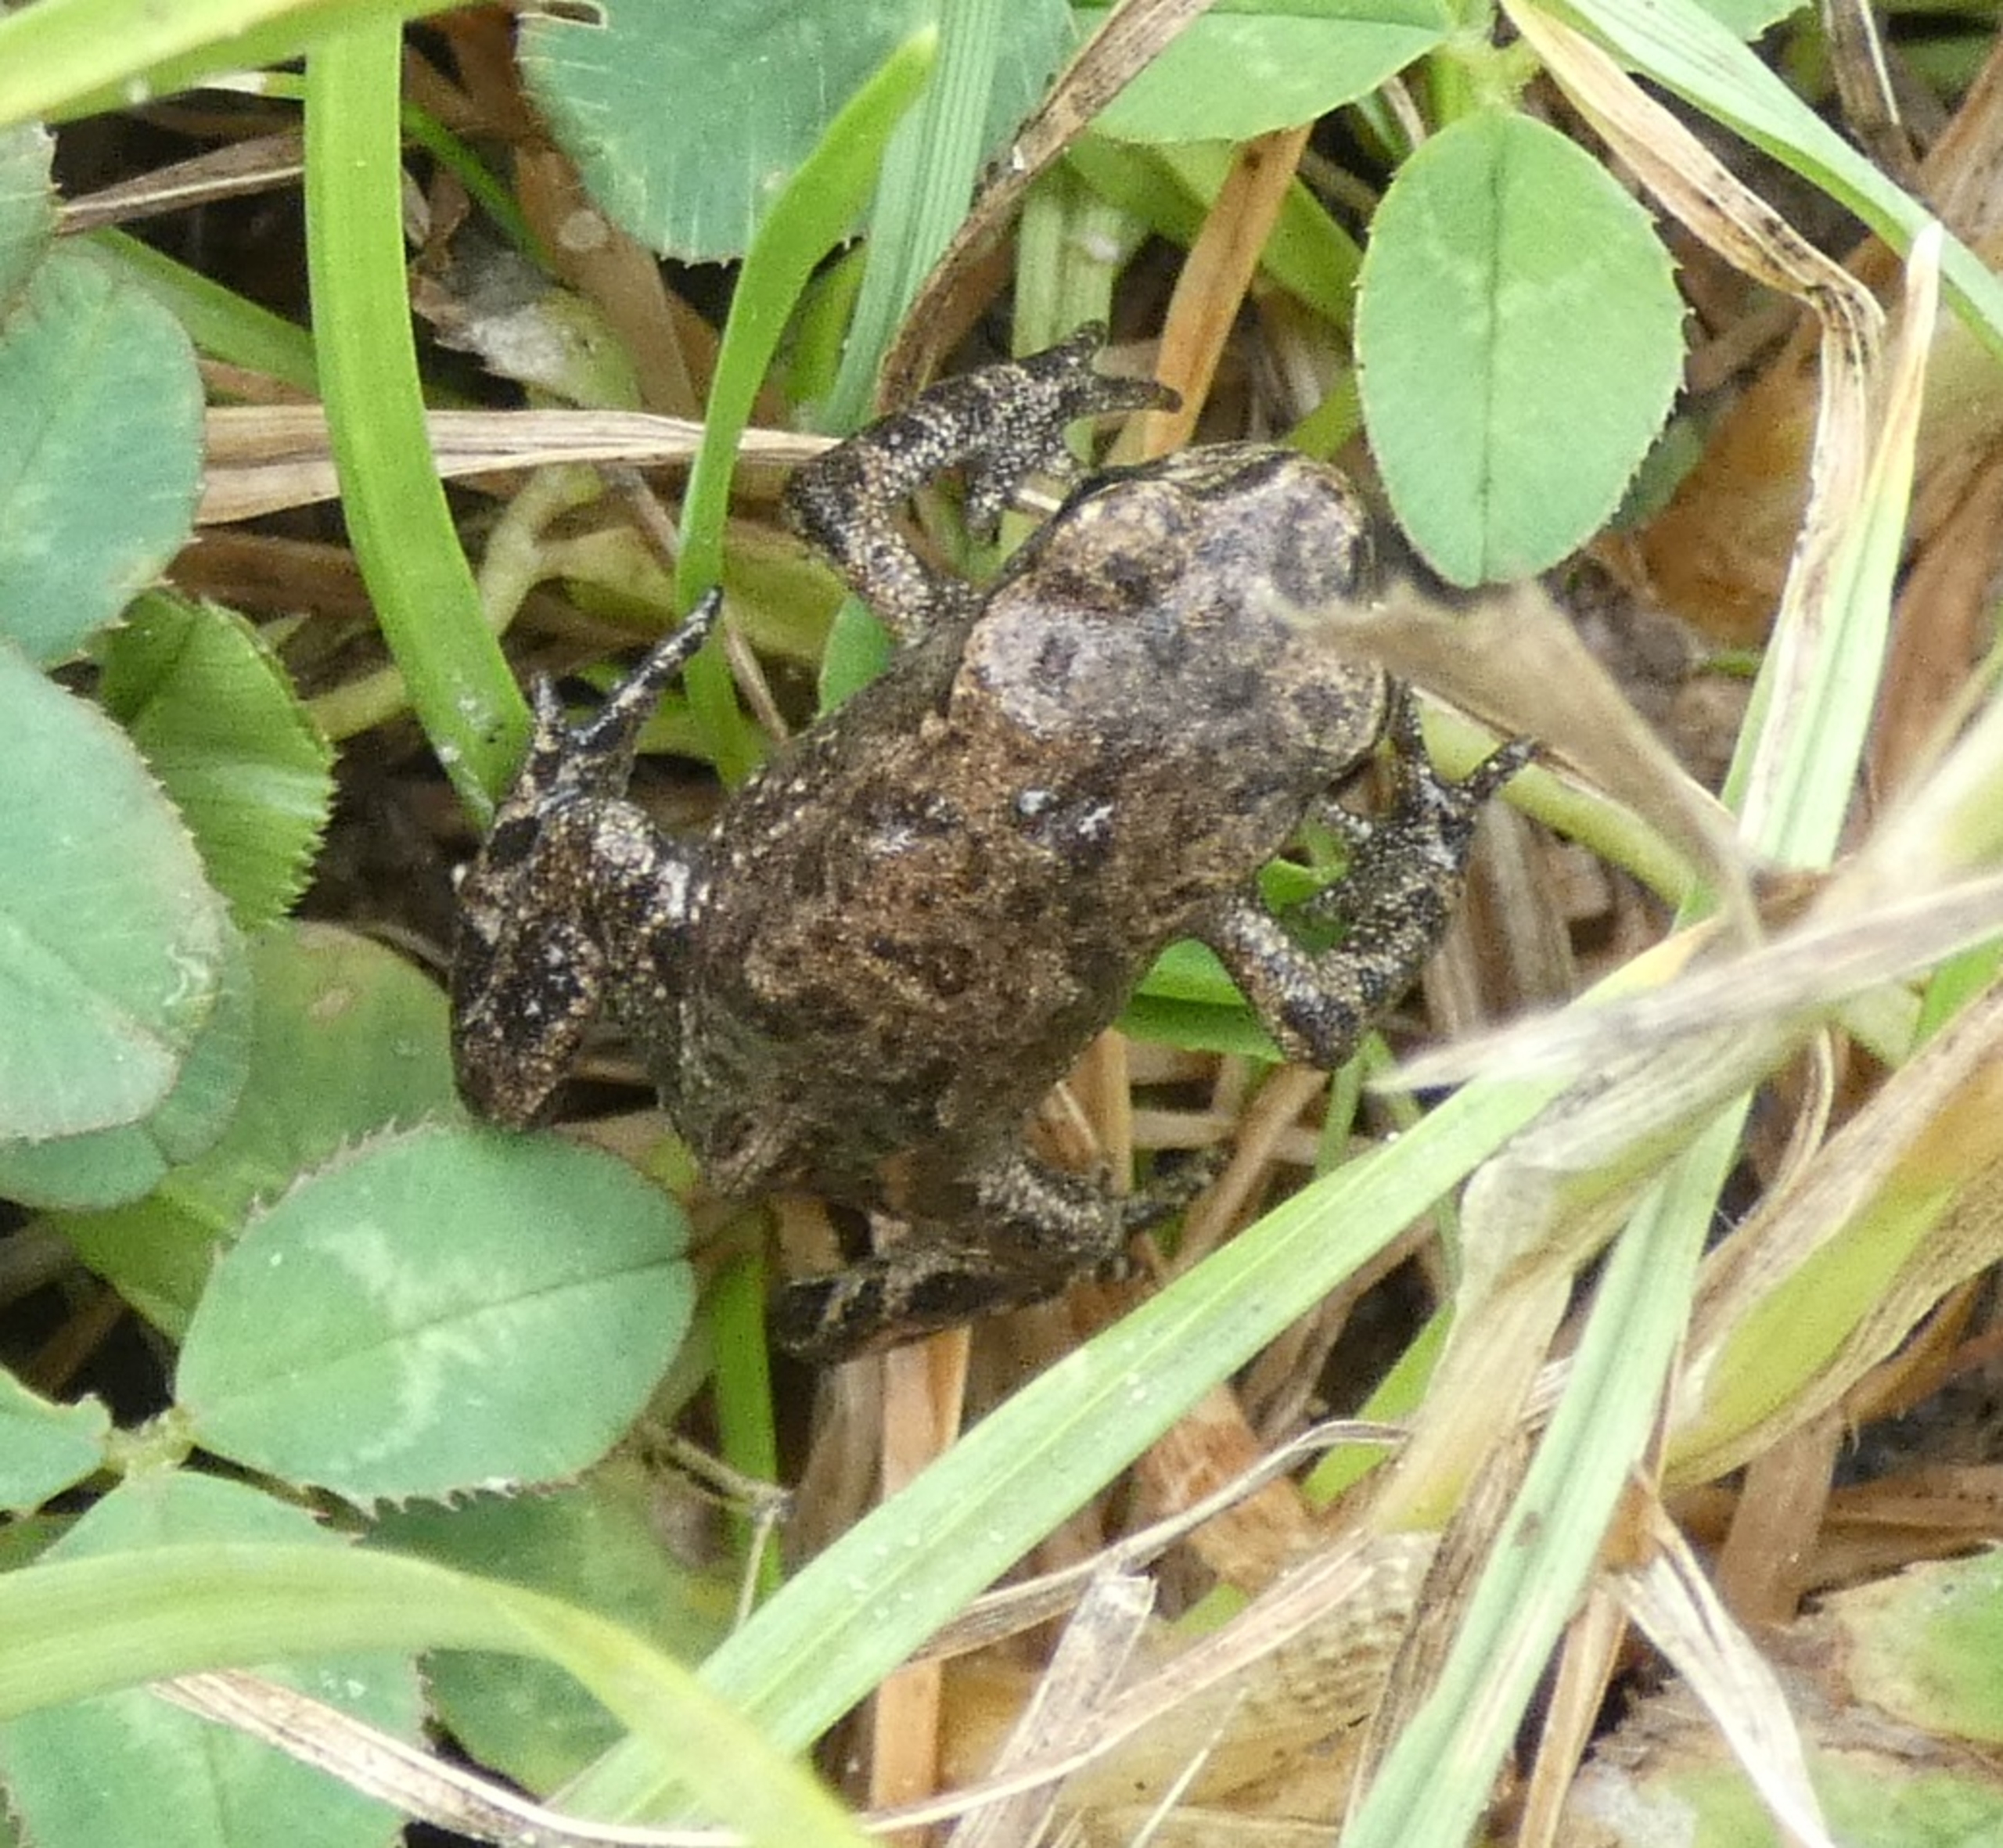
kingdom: Animalia
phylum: Chordata
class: Amphibia
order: Anura
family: Bufonidae
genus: Bufo
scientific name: Bufo bufo
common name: Skrubtudse
